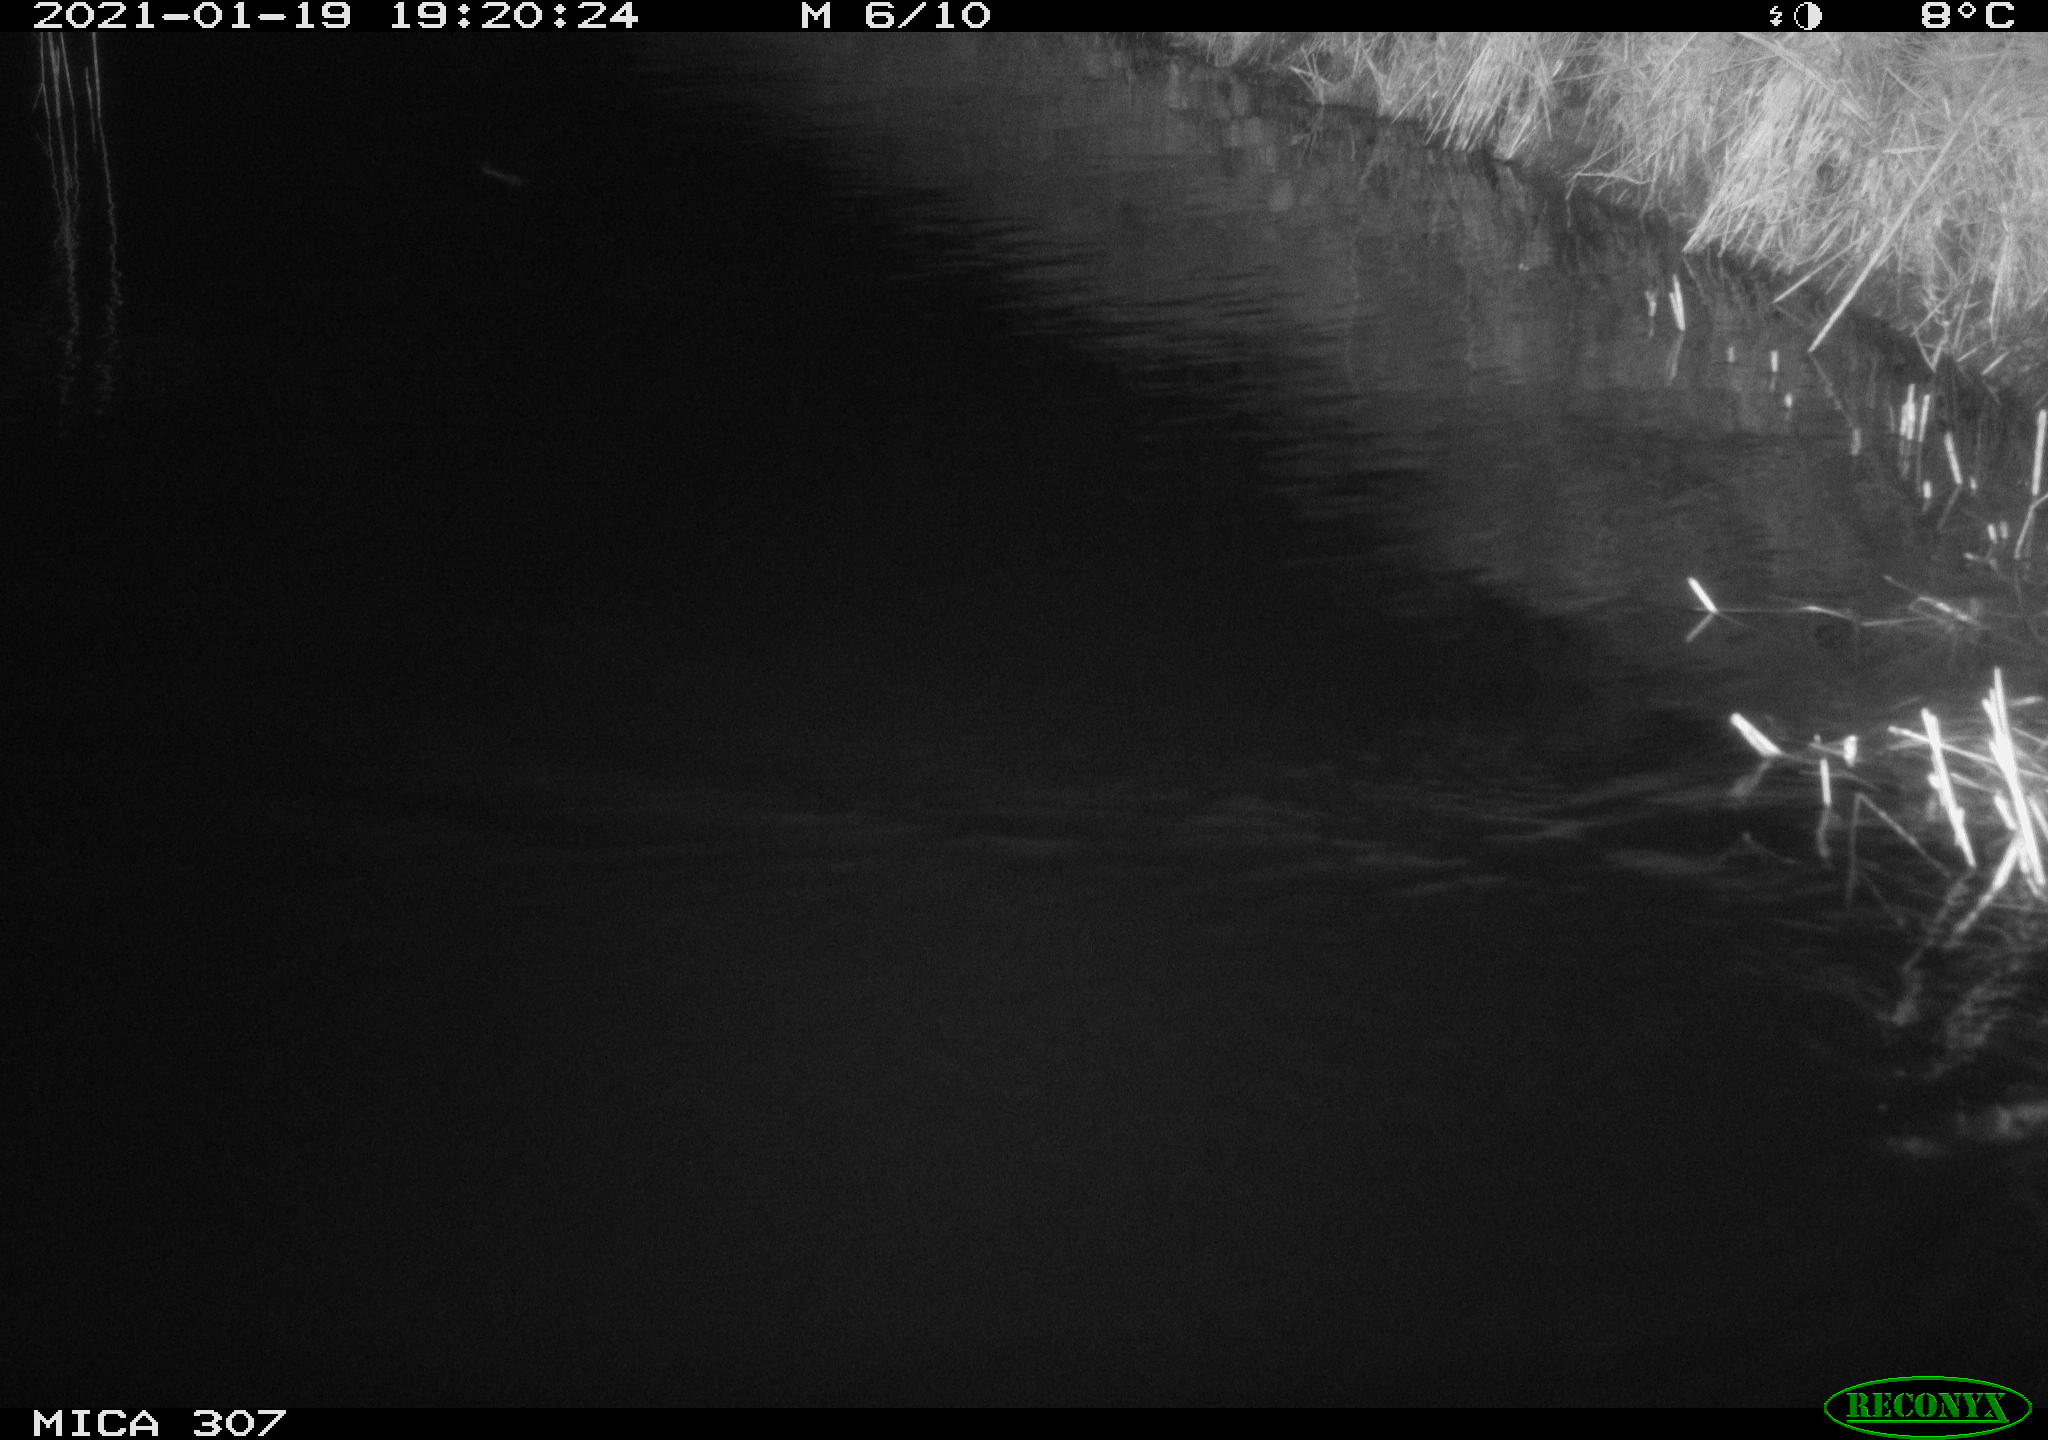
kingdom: Animalia
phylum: Chordata
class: Mammalia
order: Rodentia
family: Muridae
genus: Rattus
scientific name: Rattus norvegicus
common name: Brown rat
